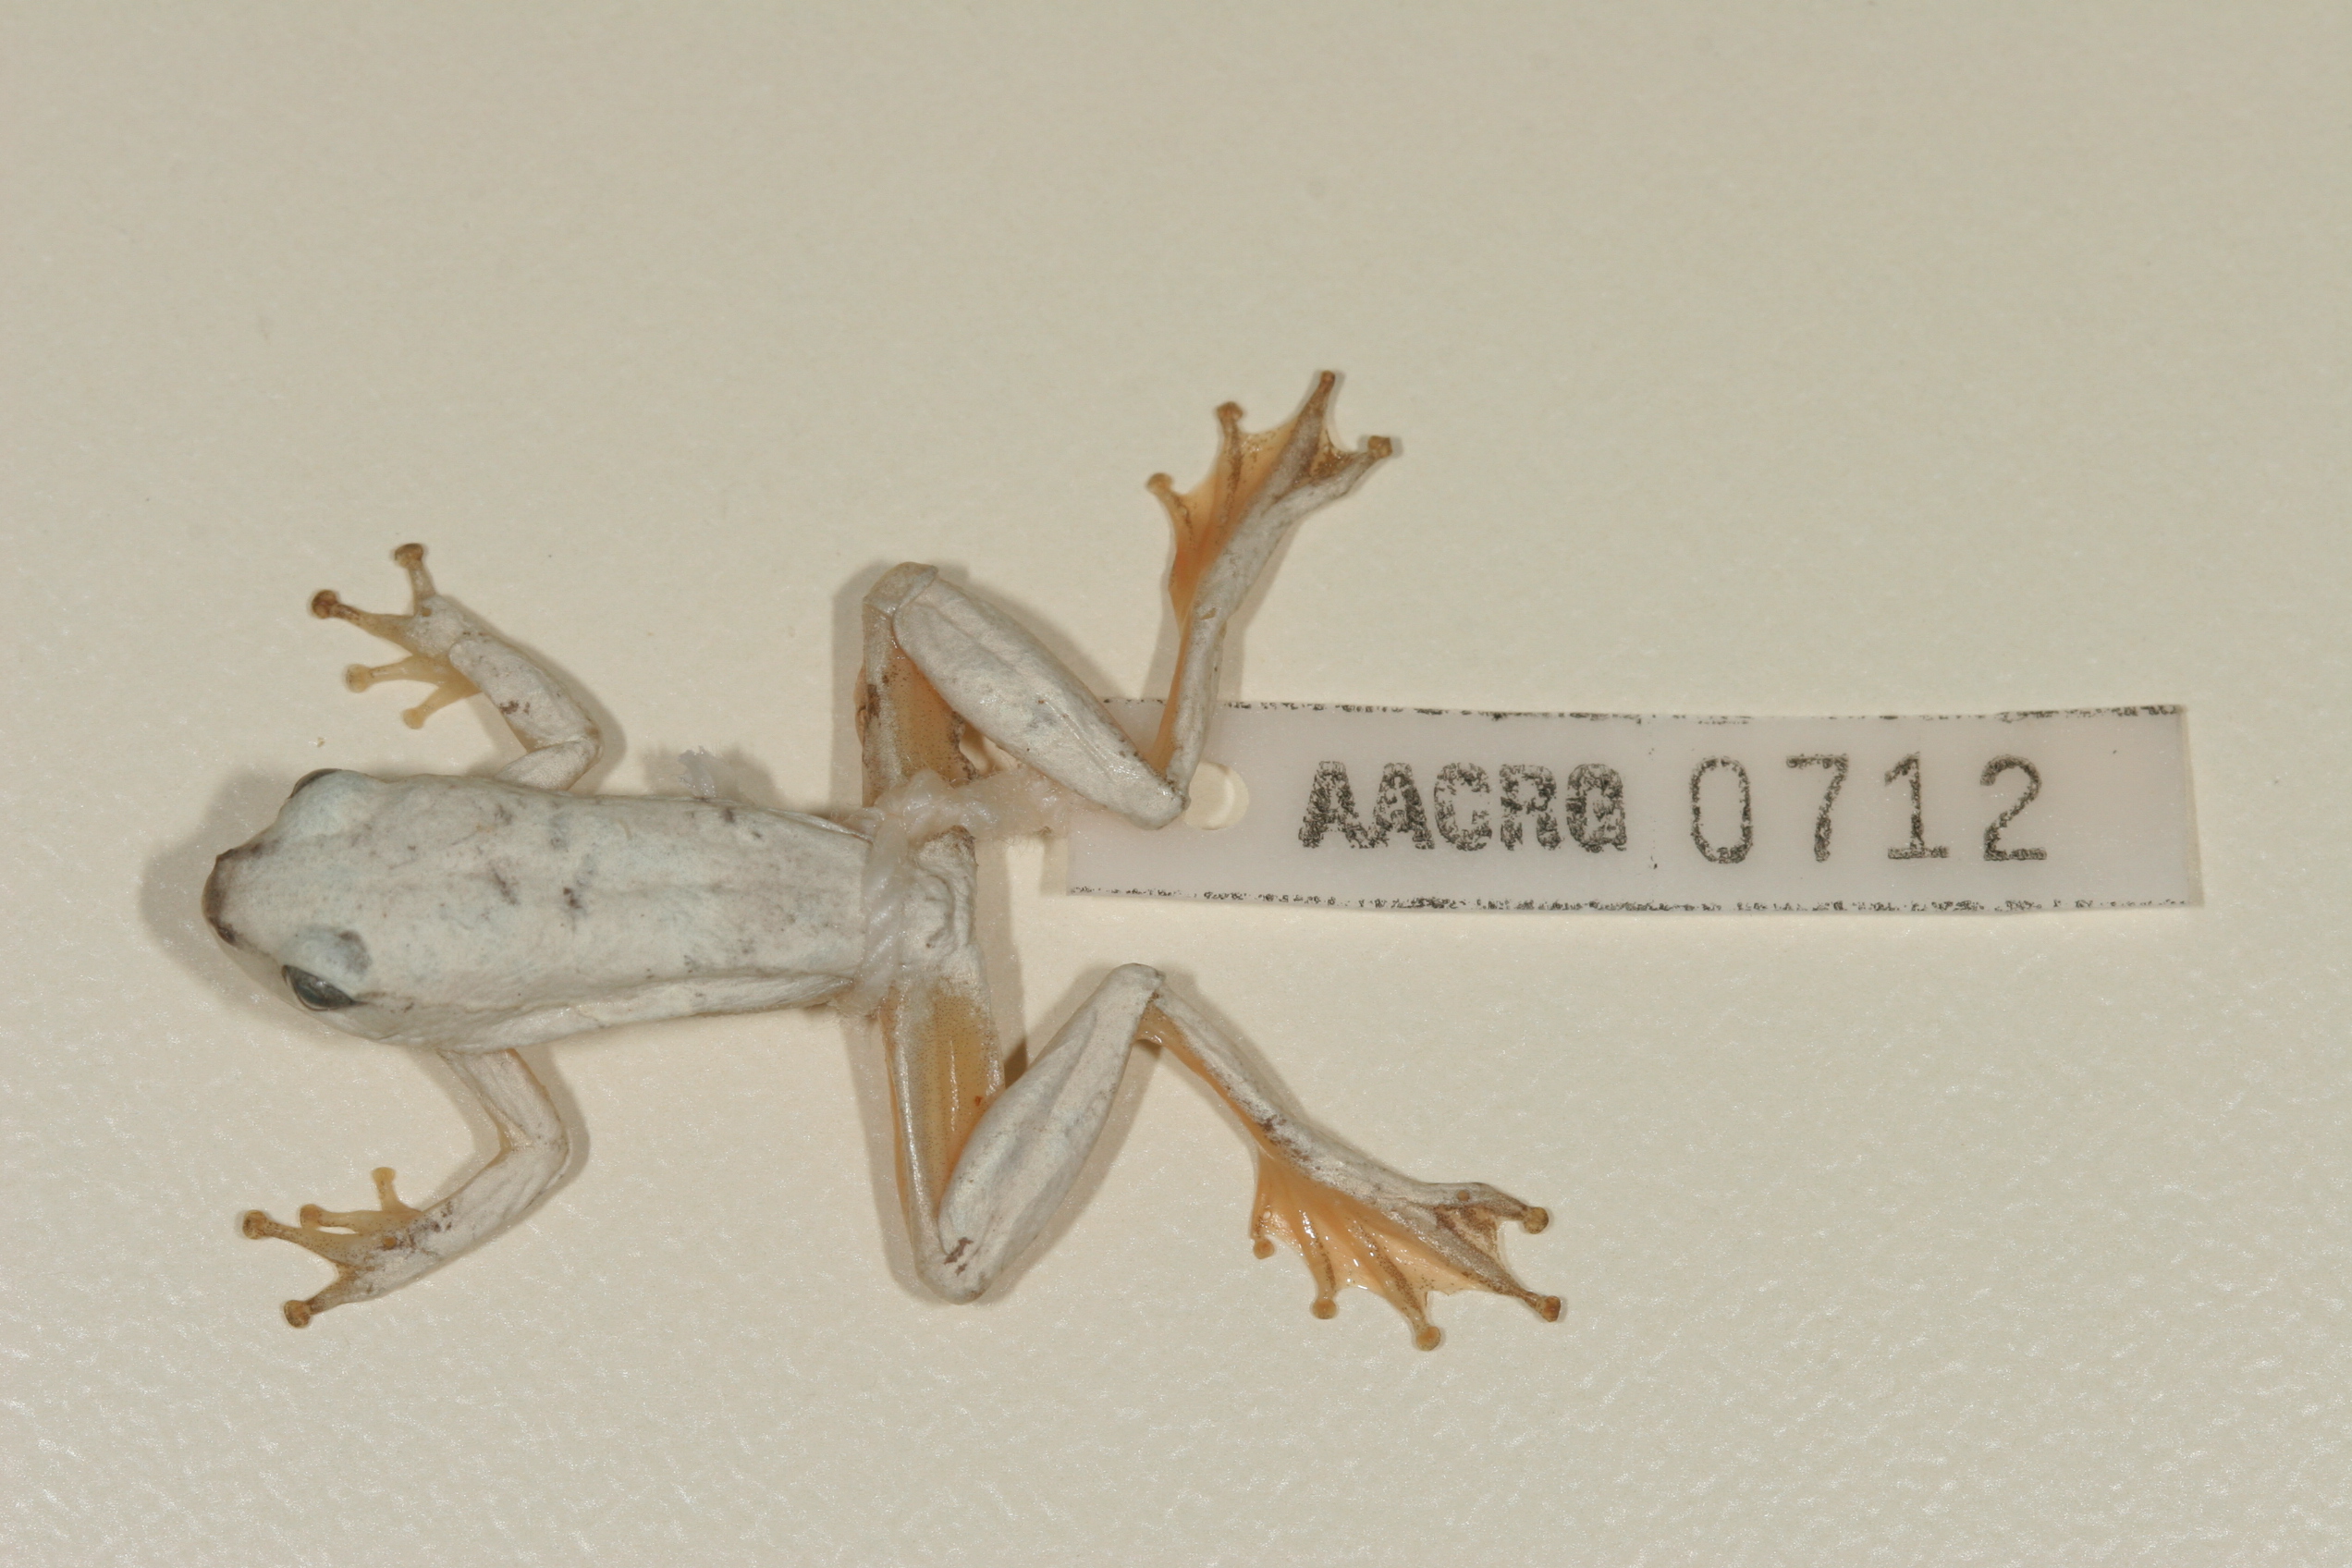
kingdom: Animalia
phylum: Chordata
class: Amphibia
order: Anura
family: Hyperoliidae
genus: Hyperolius
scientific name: Hyperolius parallelus
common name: Angolan reed frog
